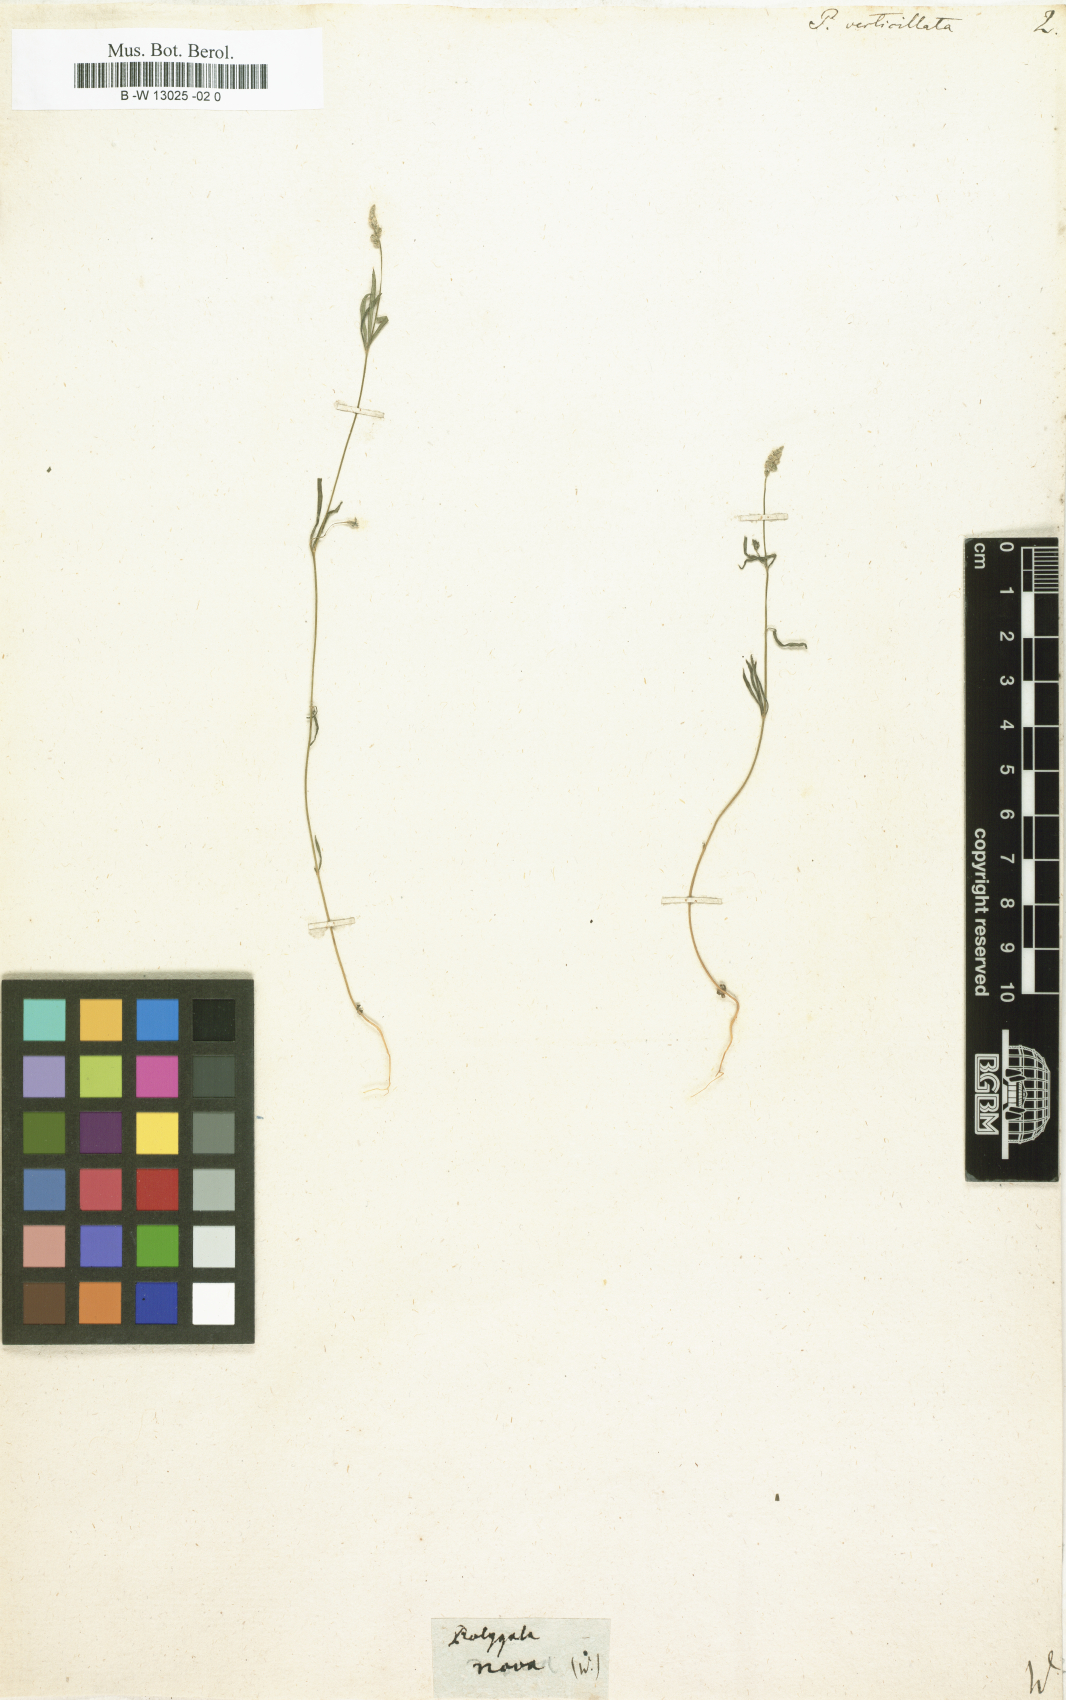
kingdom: Plantae
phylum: Tracheophyta
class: Magnoliopsida
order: Fabales
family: Polygalaceae
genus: Polygala
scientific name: Polygala verticillata
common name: Whorl milkwort
